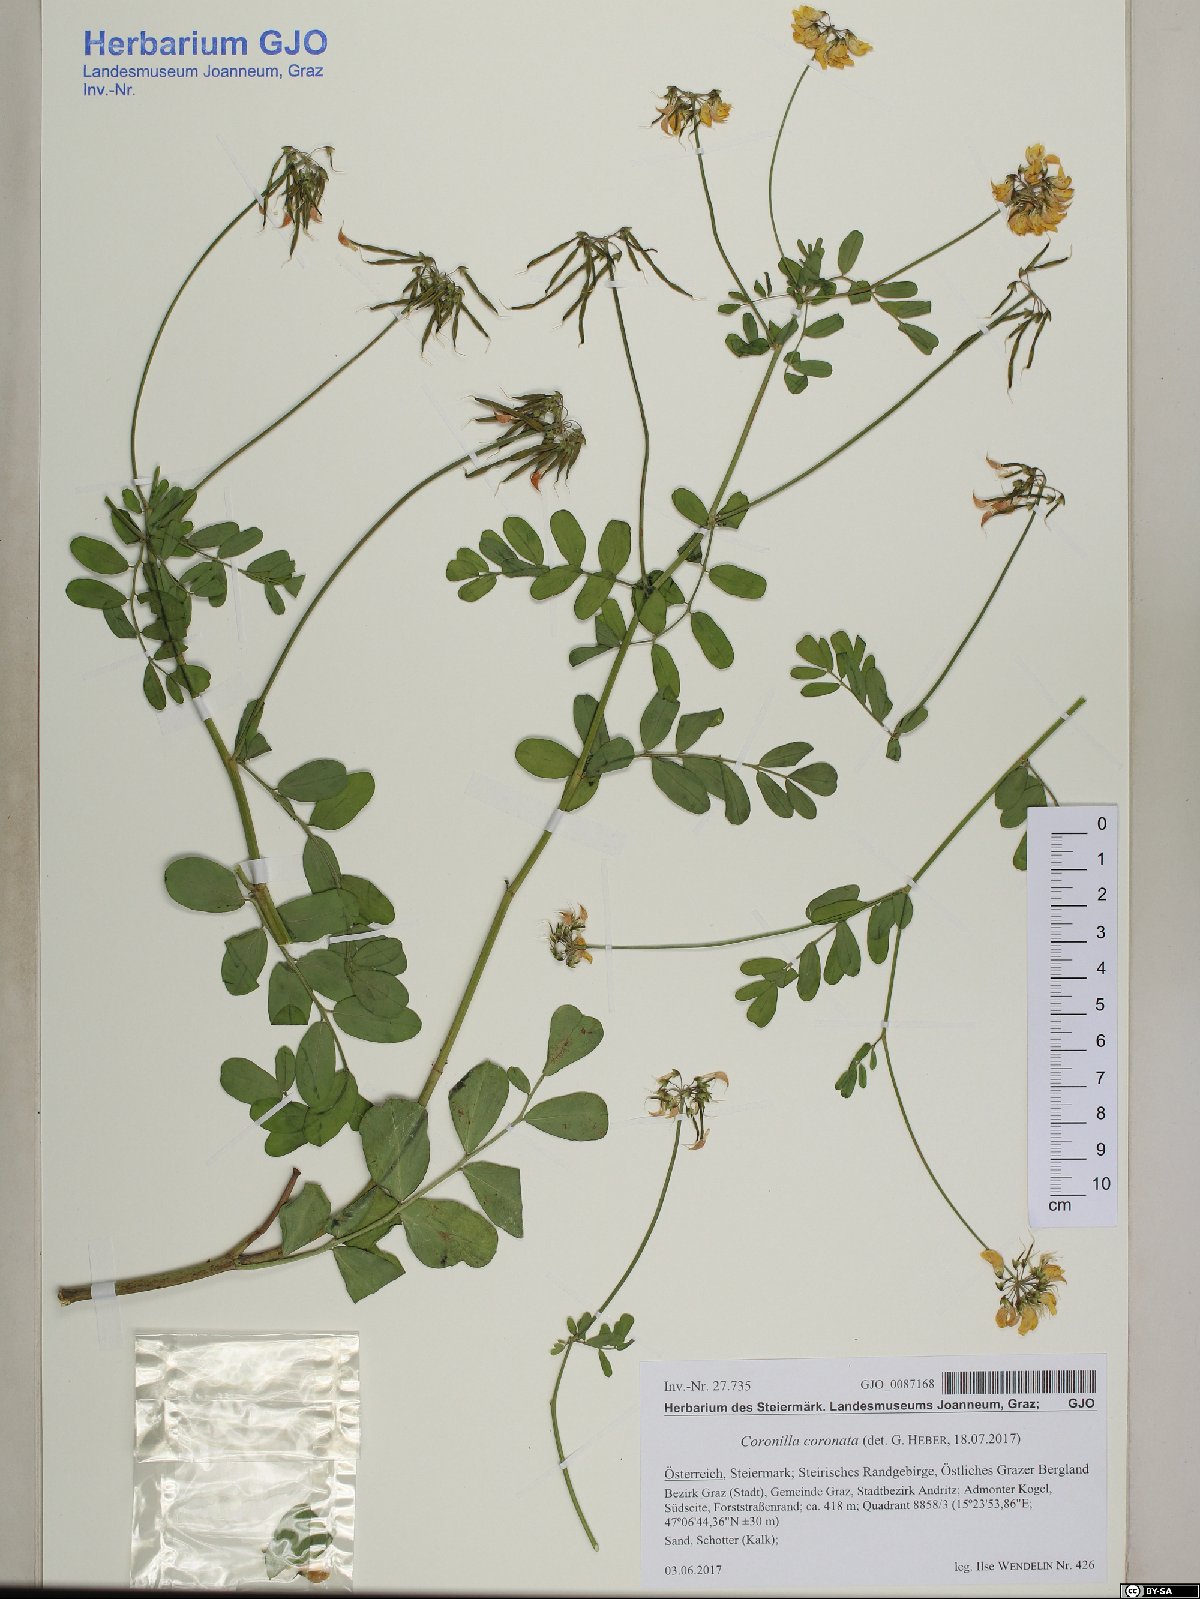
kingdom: Plantae
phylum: Tracheophyta
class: Magnoliopsida
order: Fabales
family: Fabaceae
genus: Coronilla
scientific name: Coronilla coronata
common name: Scorpion-vetch
